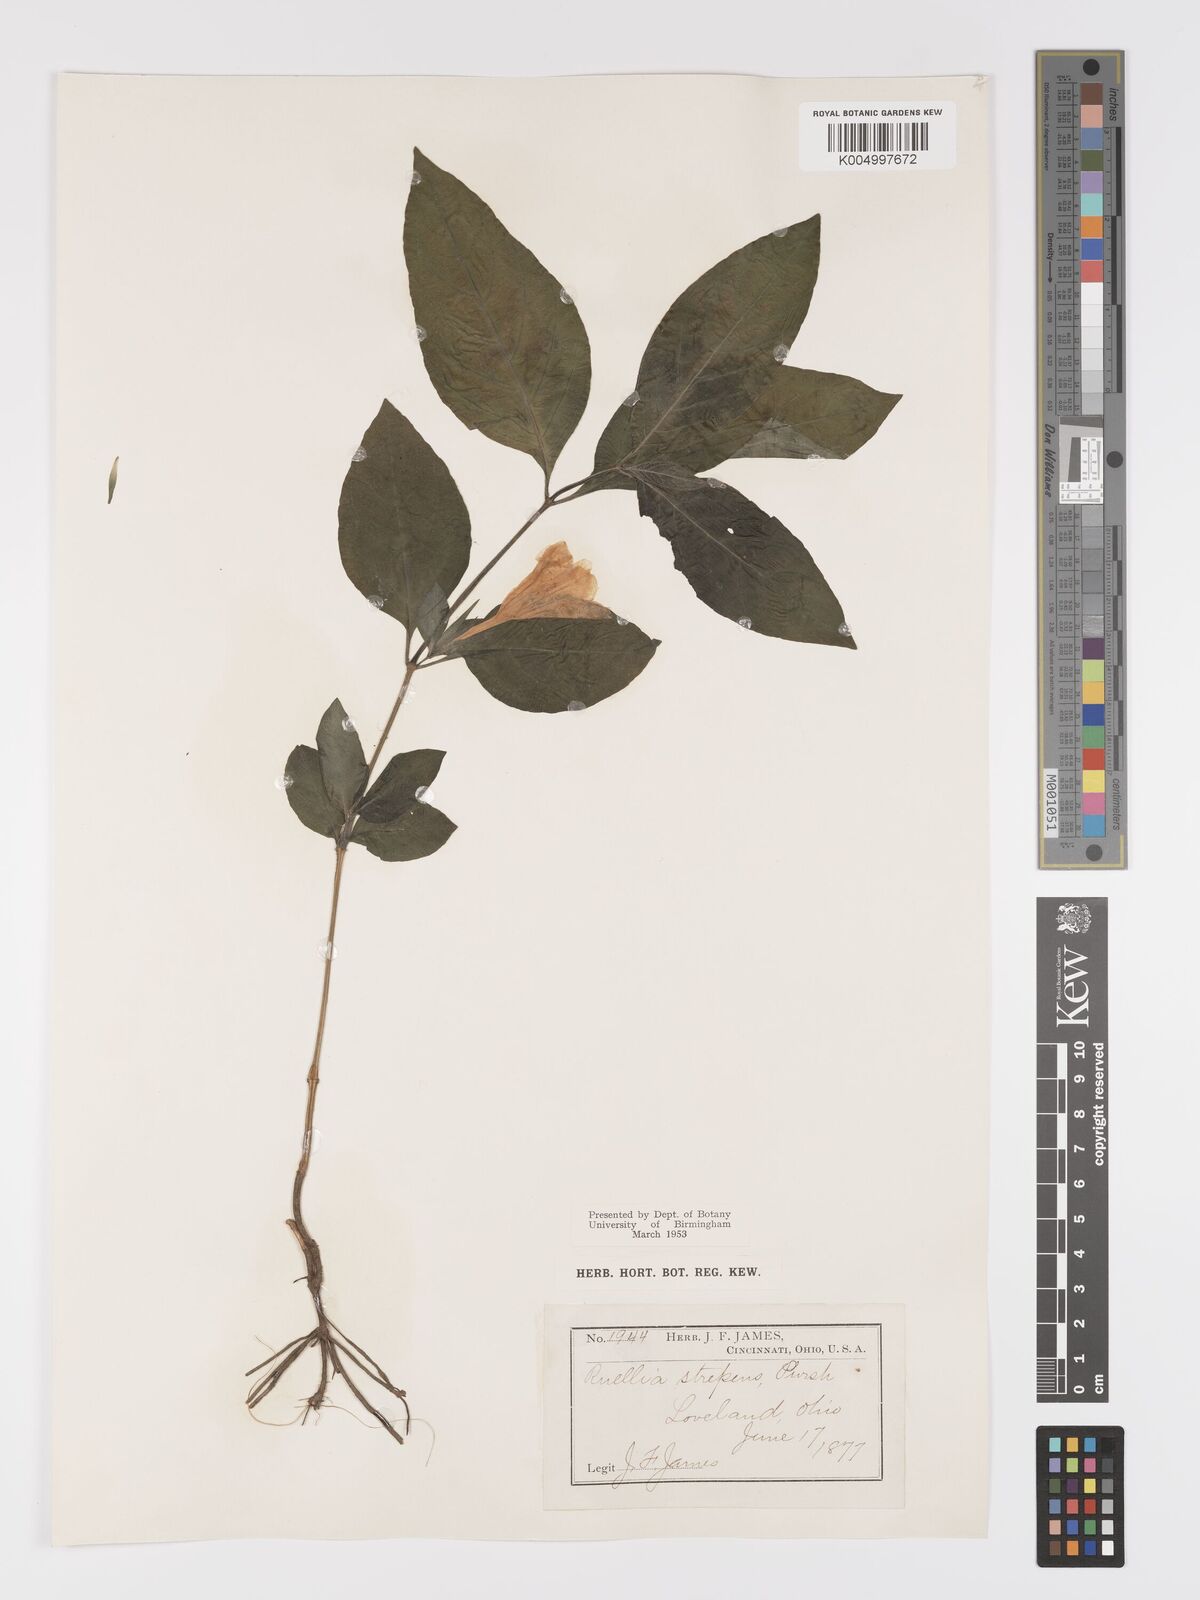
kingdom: Plantae
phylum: Tracheophyta
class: Magnoliopsida
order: Lamiales
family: Acanthaceae
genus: Ruellia
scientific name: Ruellia strepens
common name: Limestone wild petunia
